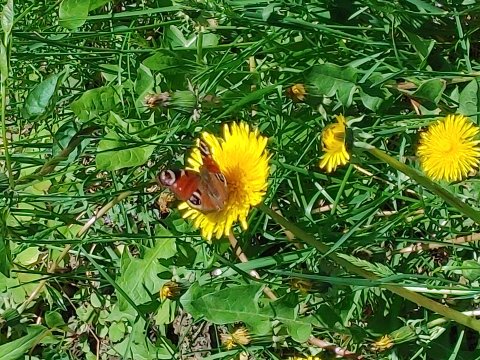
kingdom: Animalia
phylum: Arthropoda
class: Insecta
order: Lepidoptera
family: Nymphalidae
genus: Aglais
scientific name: Aglais io
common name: European Peacock
